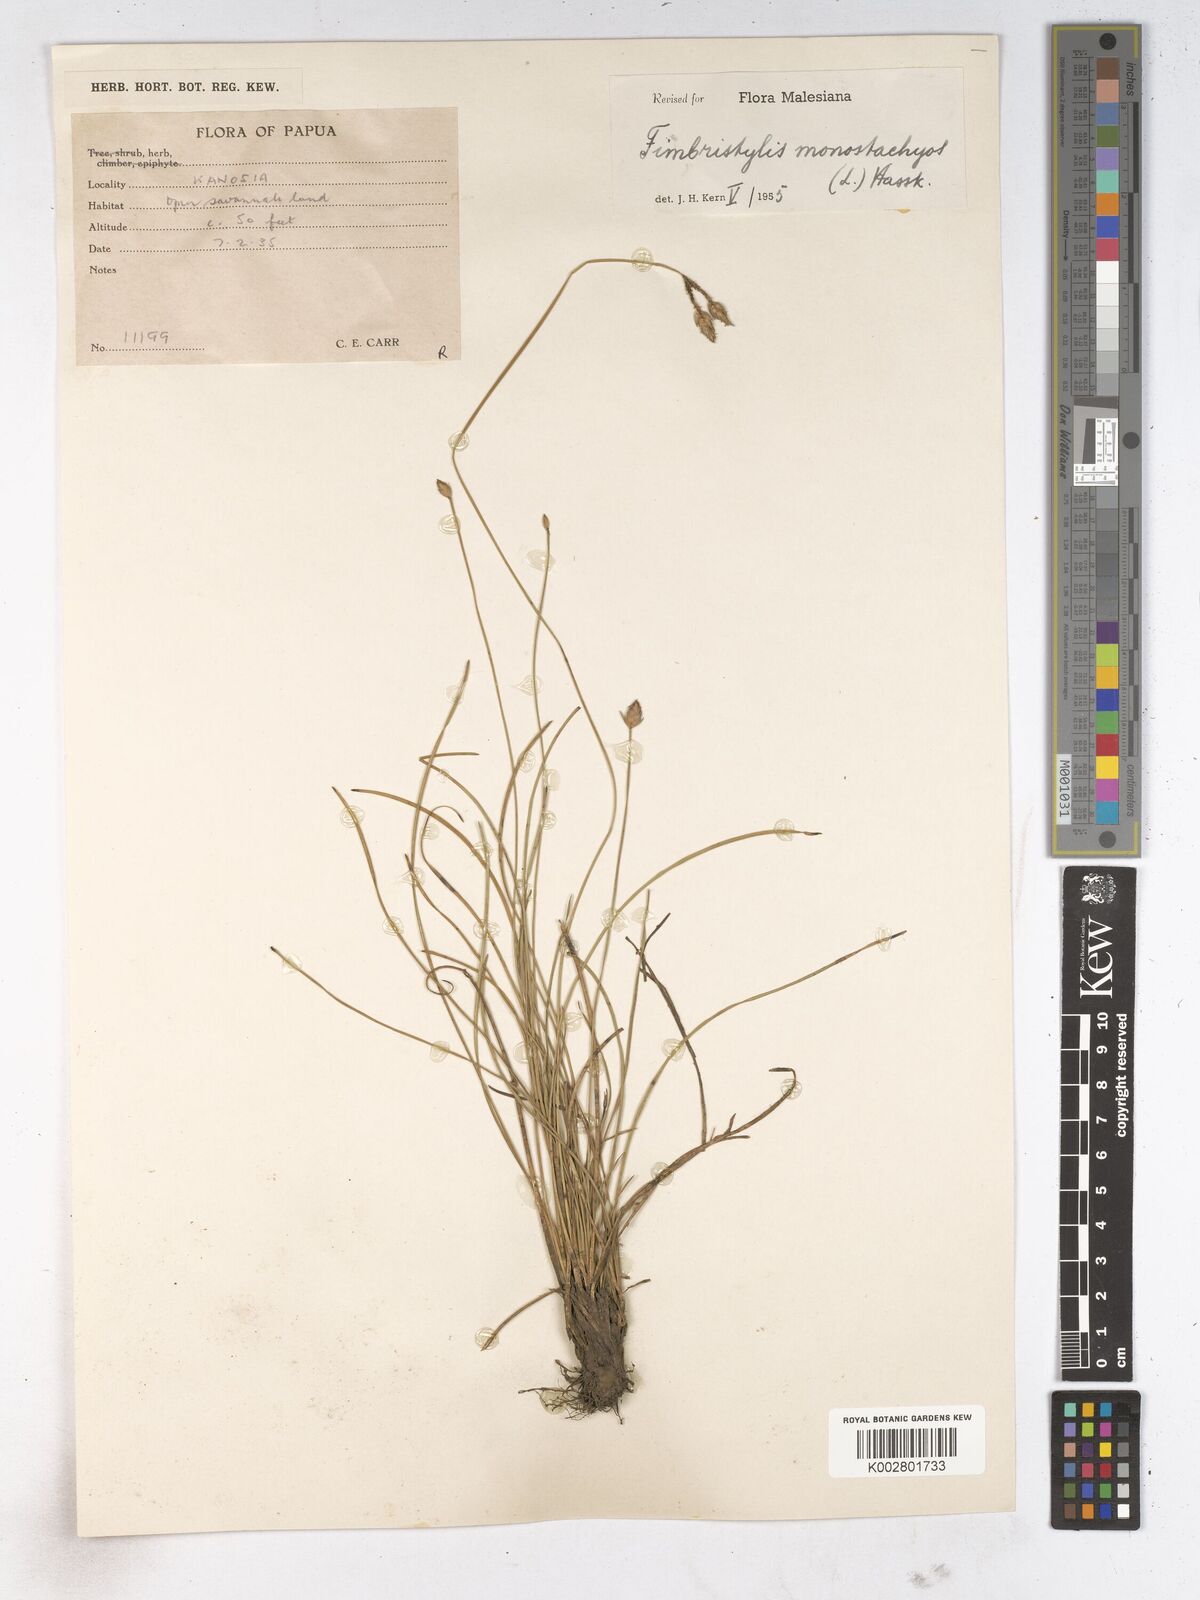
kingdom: Plantae
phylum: Tracheophyta
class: Liliopsida
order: Poales
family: Cyperaceae
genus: Abildgaardia
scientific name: Abildgaardia ovata
